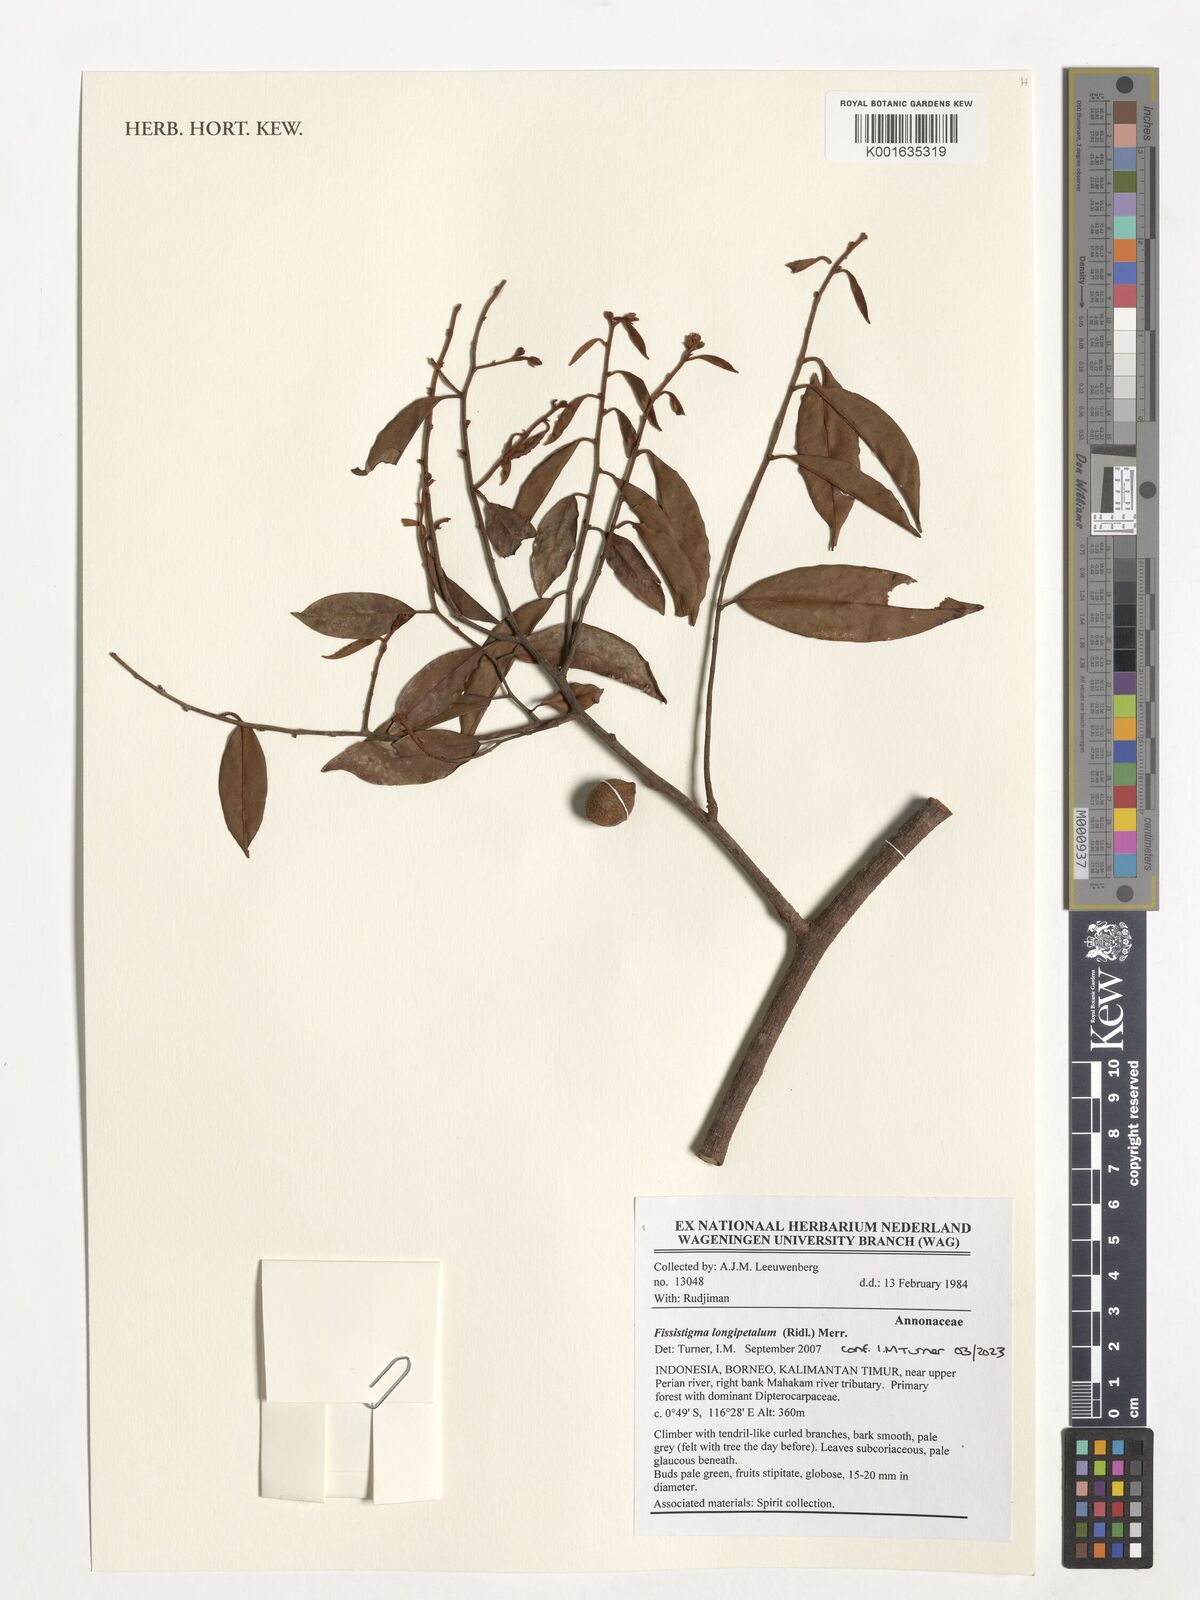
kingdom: Plantae
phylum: Tracheophyta
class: Magnoliopsida
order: Magnoliales
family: Annonaceae
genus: Fissistigma
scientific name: Fissistigma longipetalum
